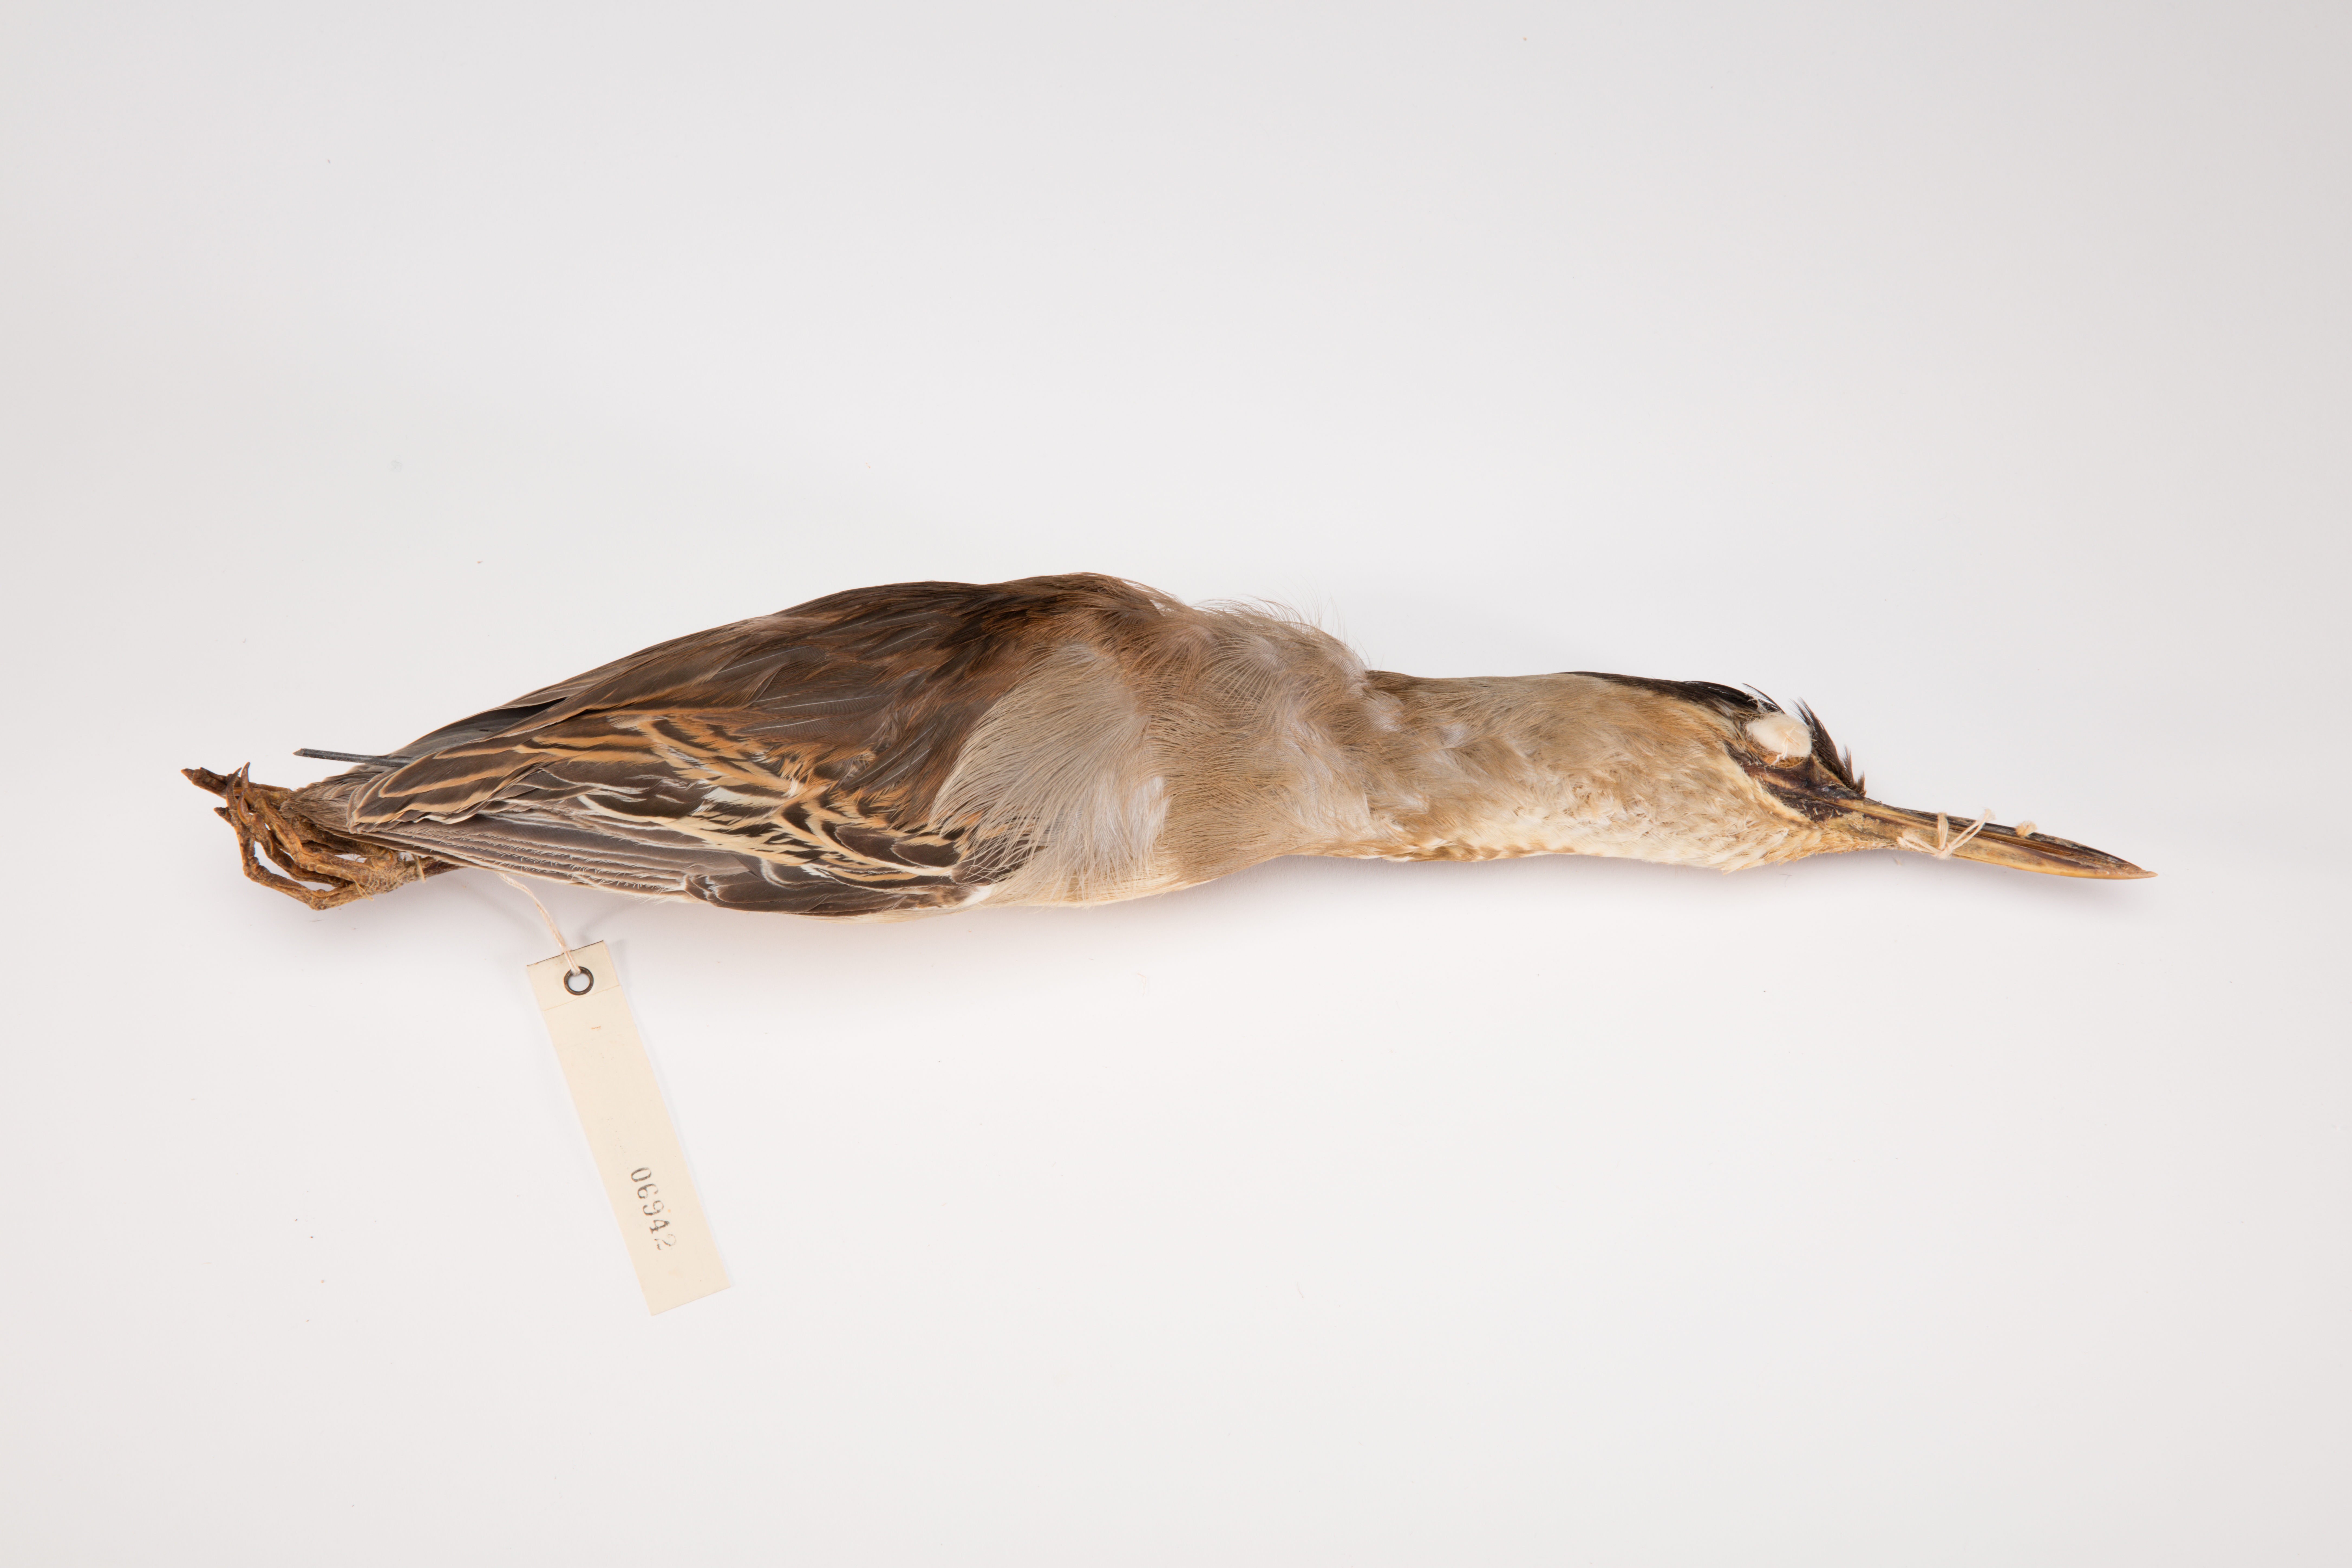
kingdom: Animalia
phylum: Chordata
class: Aves
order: Pelecaniformes
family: Ardeidae
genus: Butorides
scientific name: Butorides striata
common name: Striated heron
